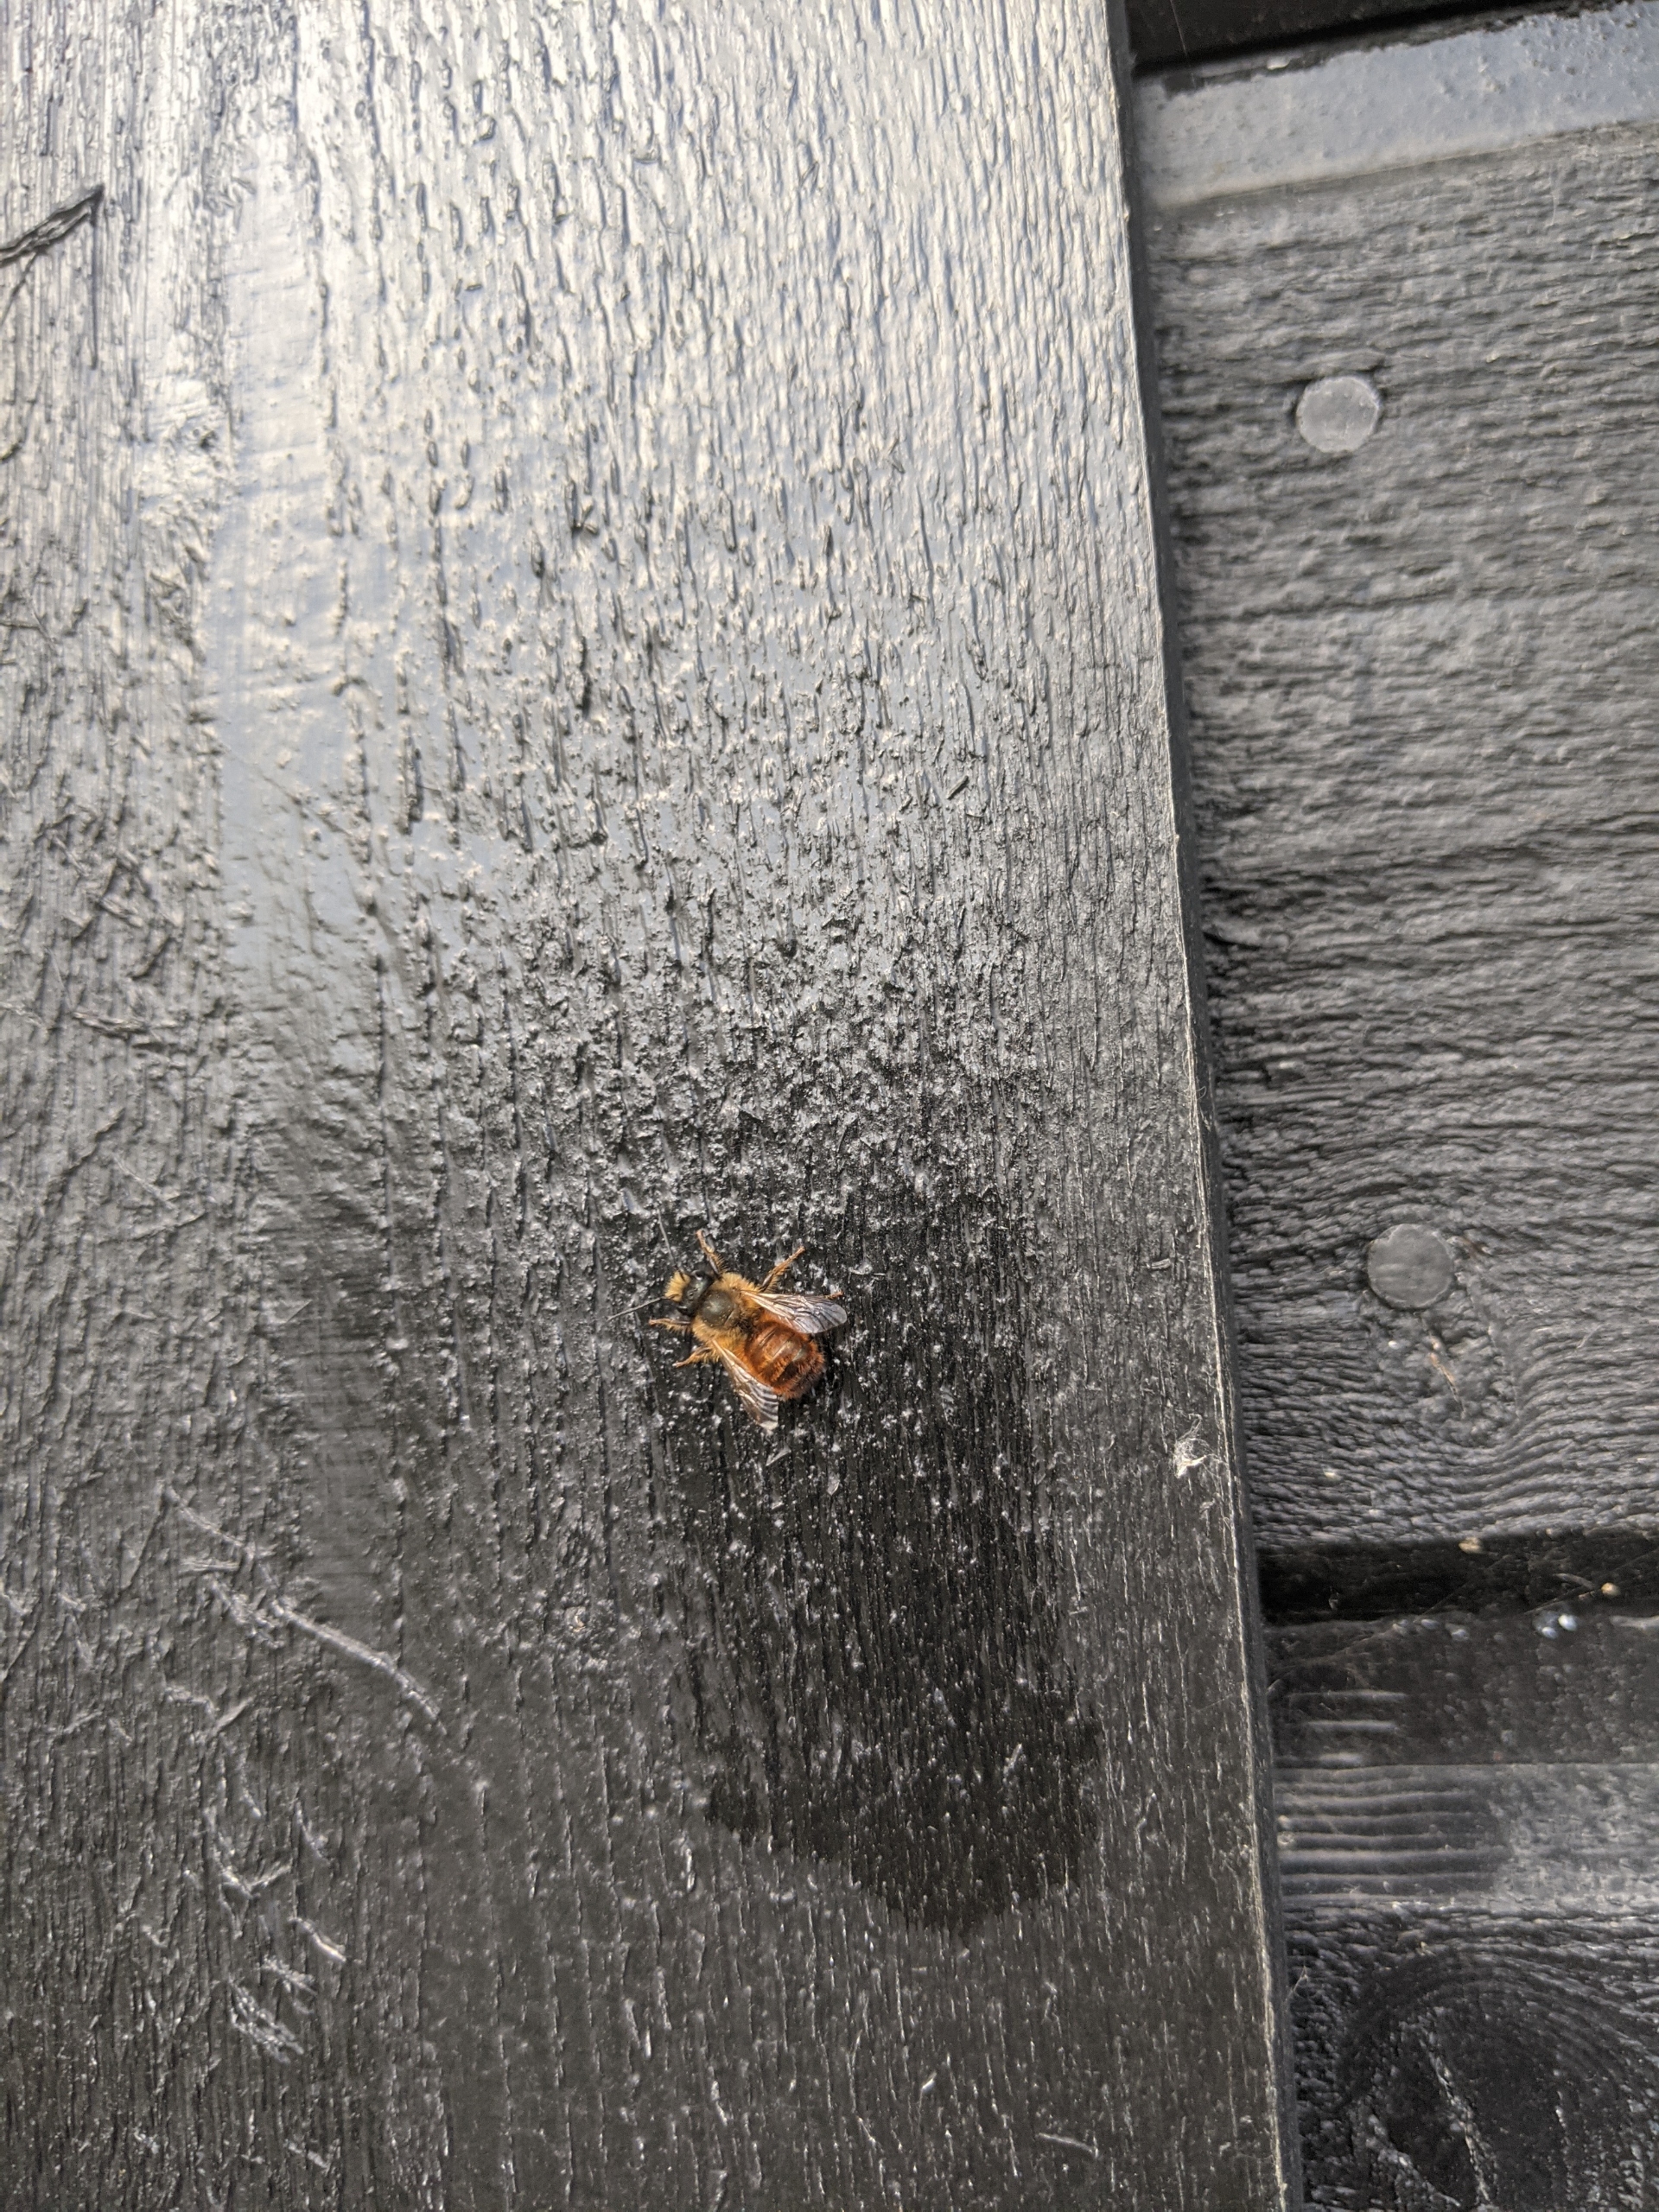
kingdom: Animalia
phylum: Arthropoda
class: Insecta
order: Hymenoptera
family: Megachilidae
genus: Osmia
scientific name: Osmia
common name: Murerbier
